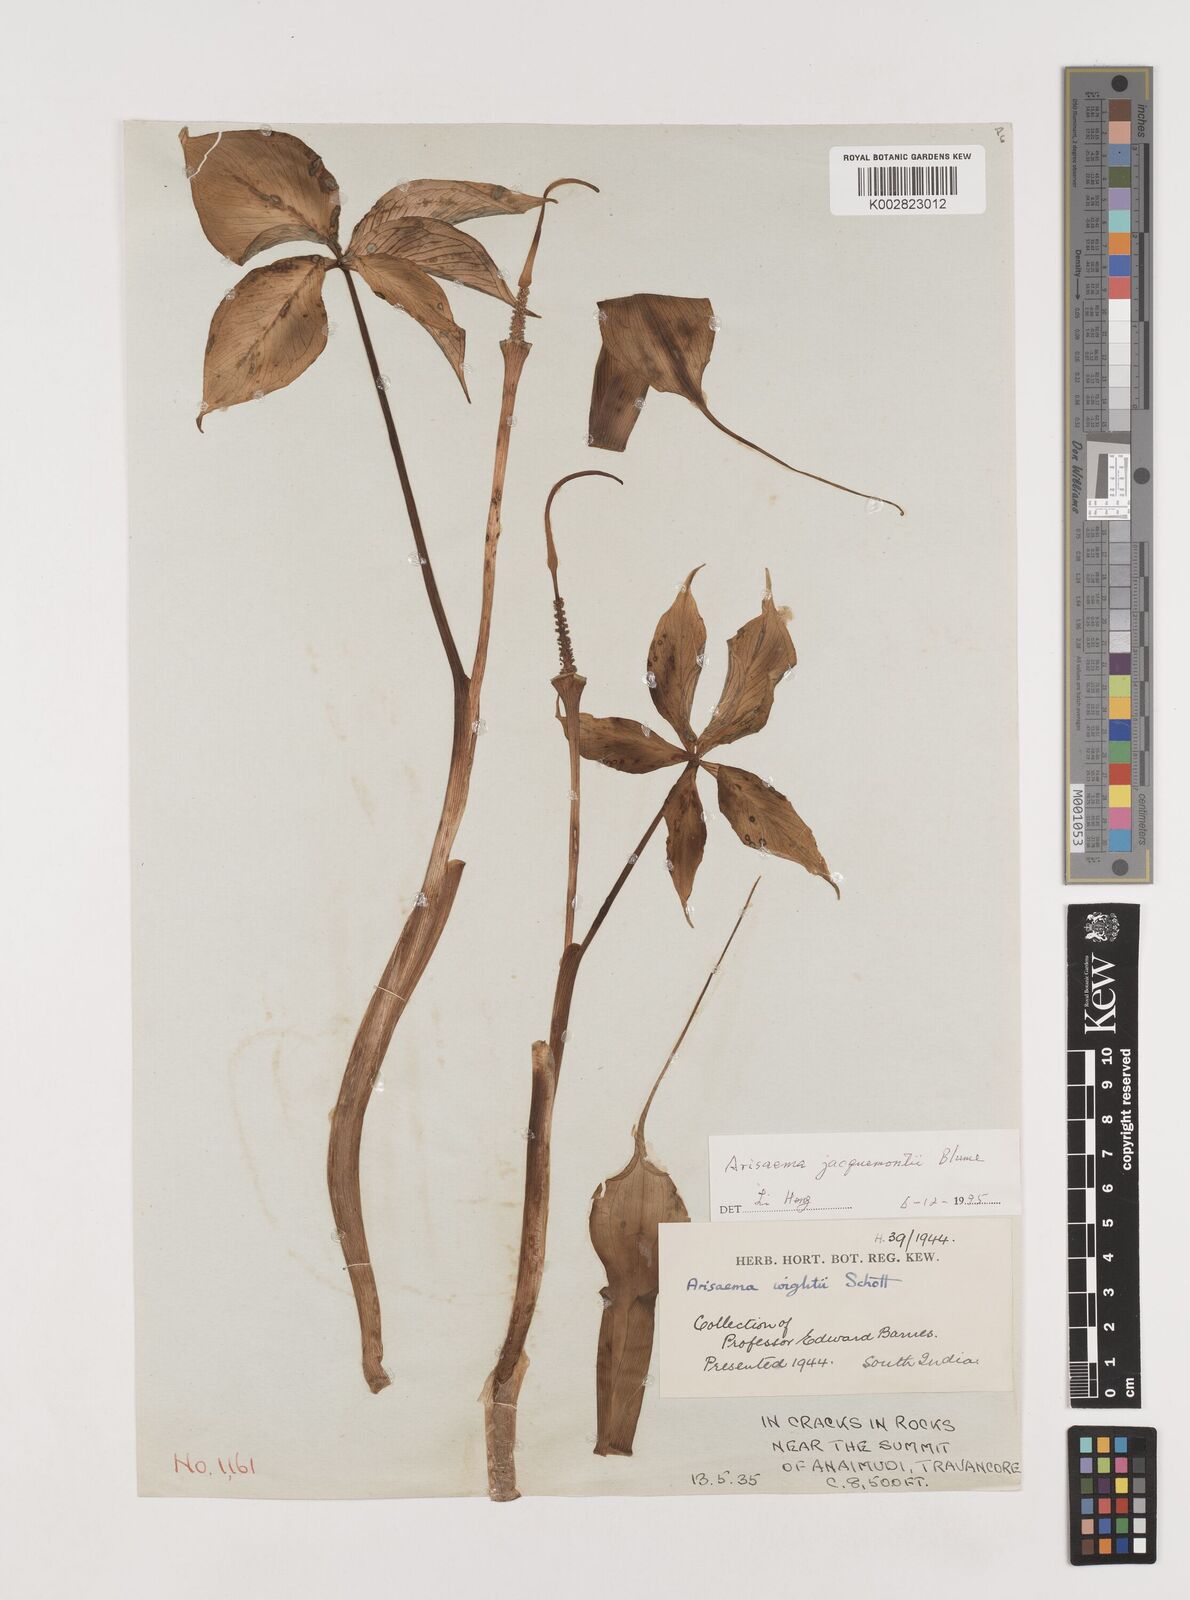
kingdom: Plantae
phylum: Tracheophyta
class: Liliopsida
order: Alismatales
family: Araceae
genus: Arisaema
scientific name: Arisaema jacquemontii
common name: Jacquemont's cobra-lily
